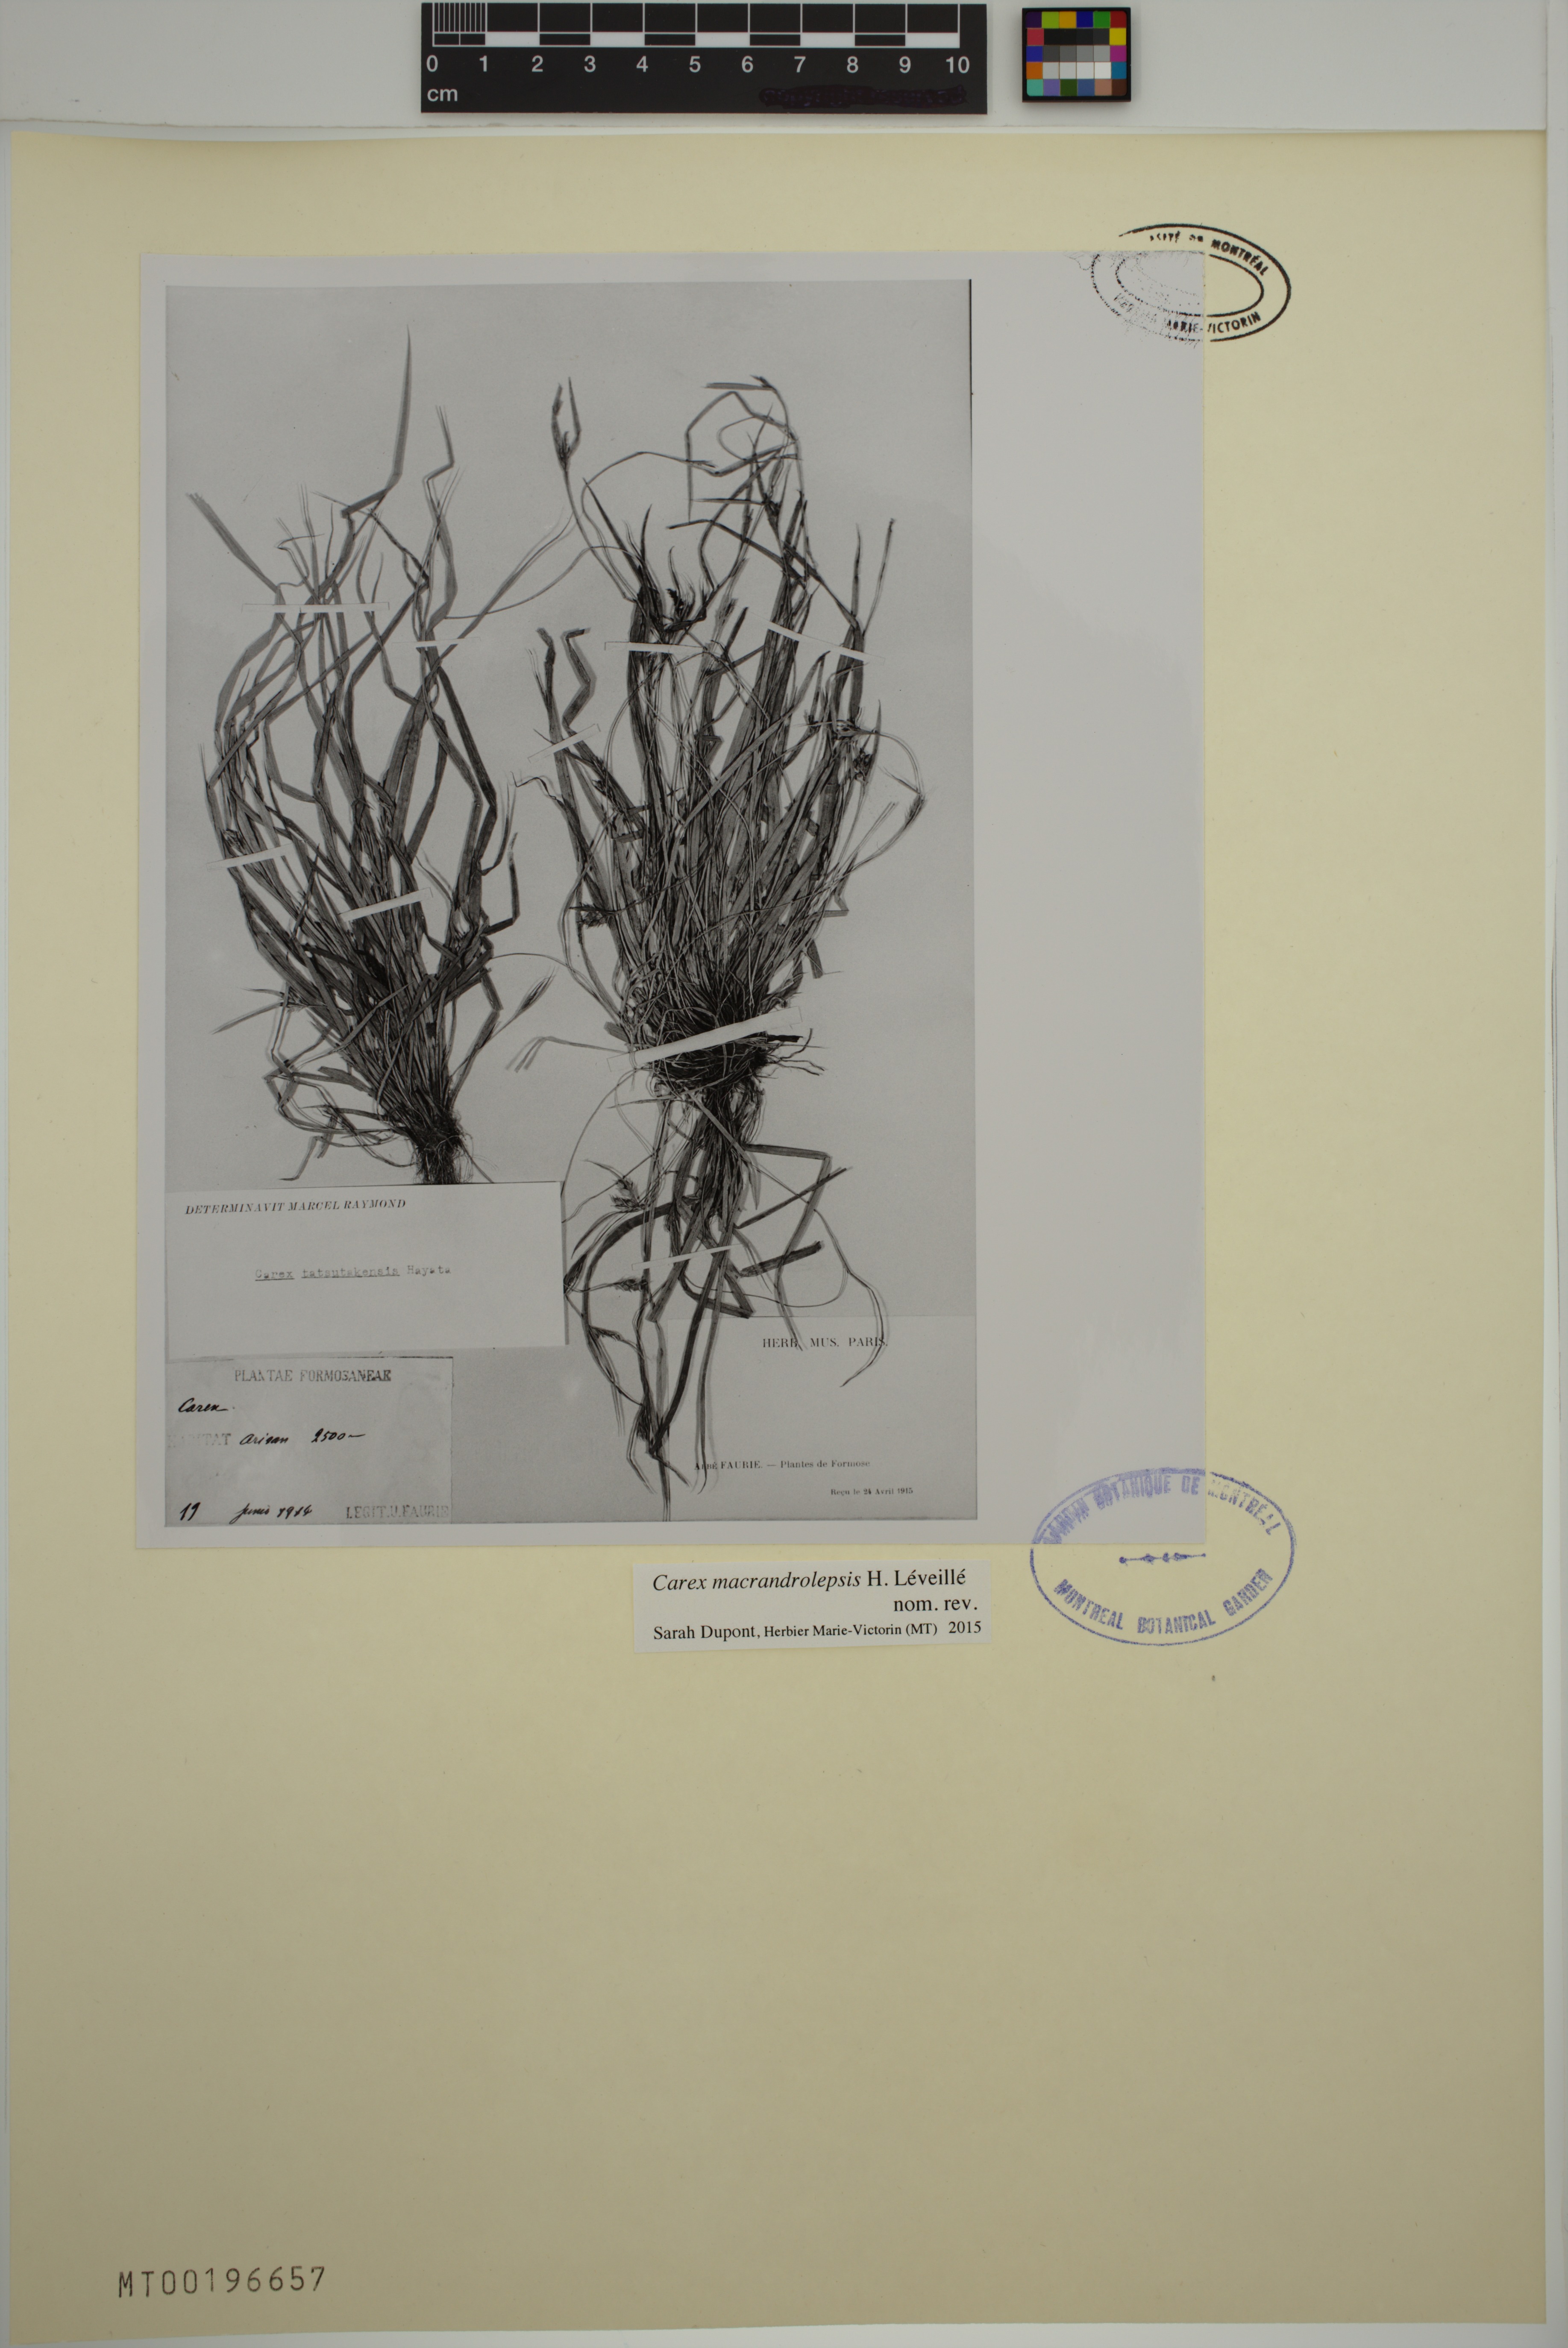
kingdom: Plantae
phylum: Tracheophyta
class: Liliopsida
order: Poales
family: Cyperaceae
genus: Carex
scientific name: Carex oxyphylla
